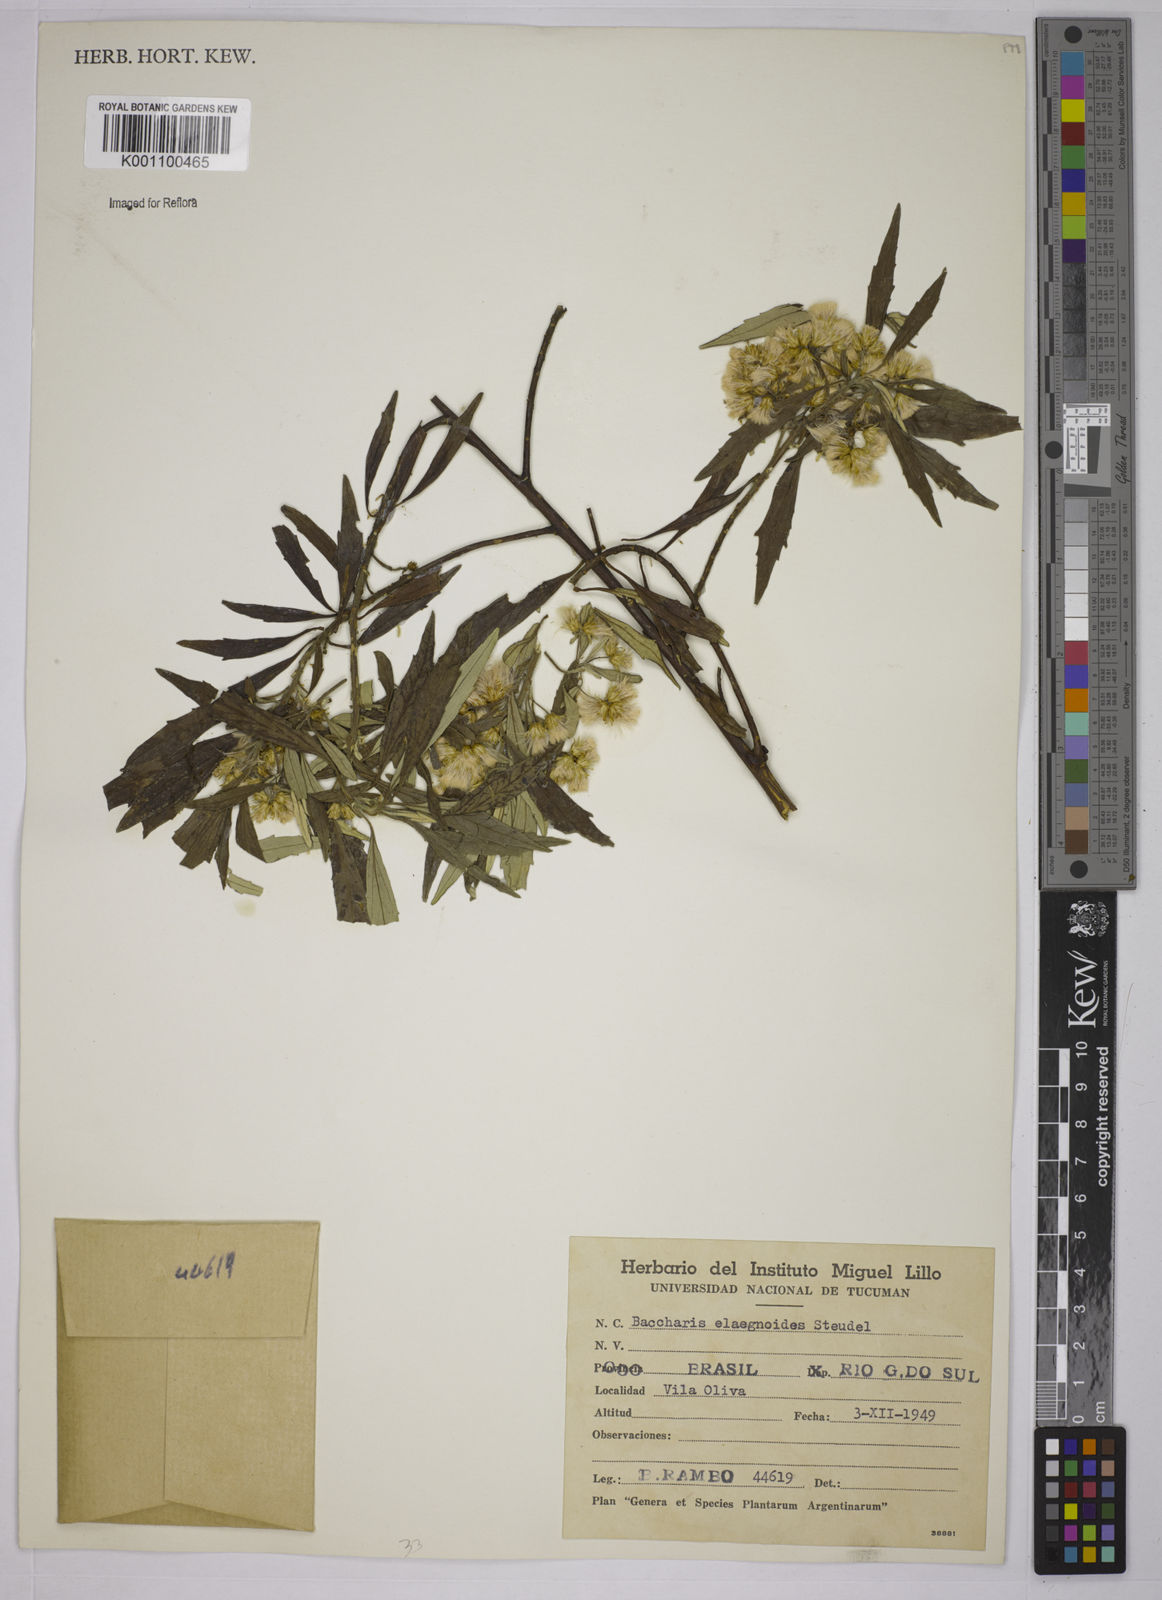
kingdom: Plantae
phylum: Tracheophyta
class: Magnoliopsida
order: Asterales
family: Asteraceae
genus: Baccharis
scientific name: Baccharis
